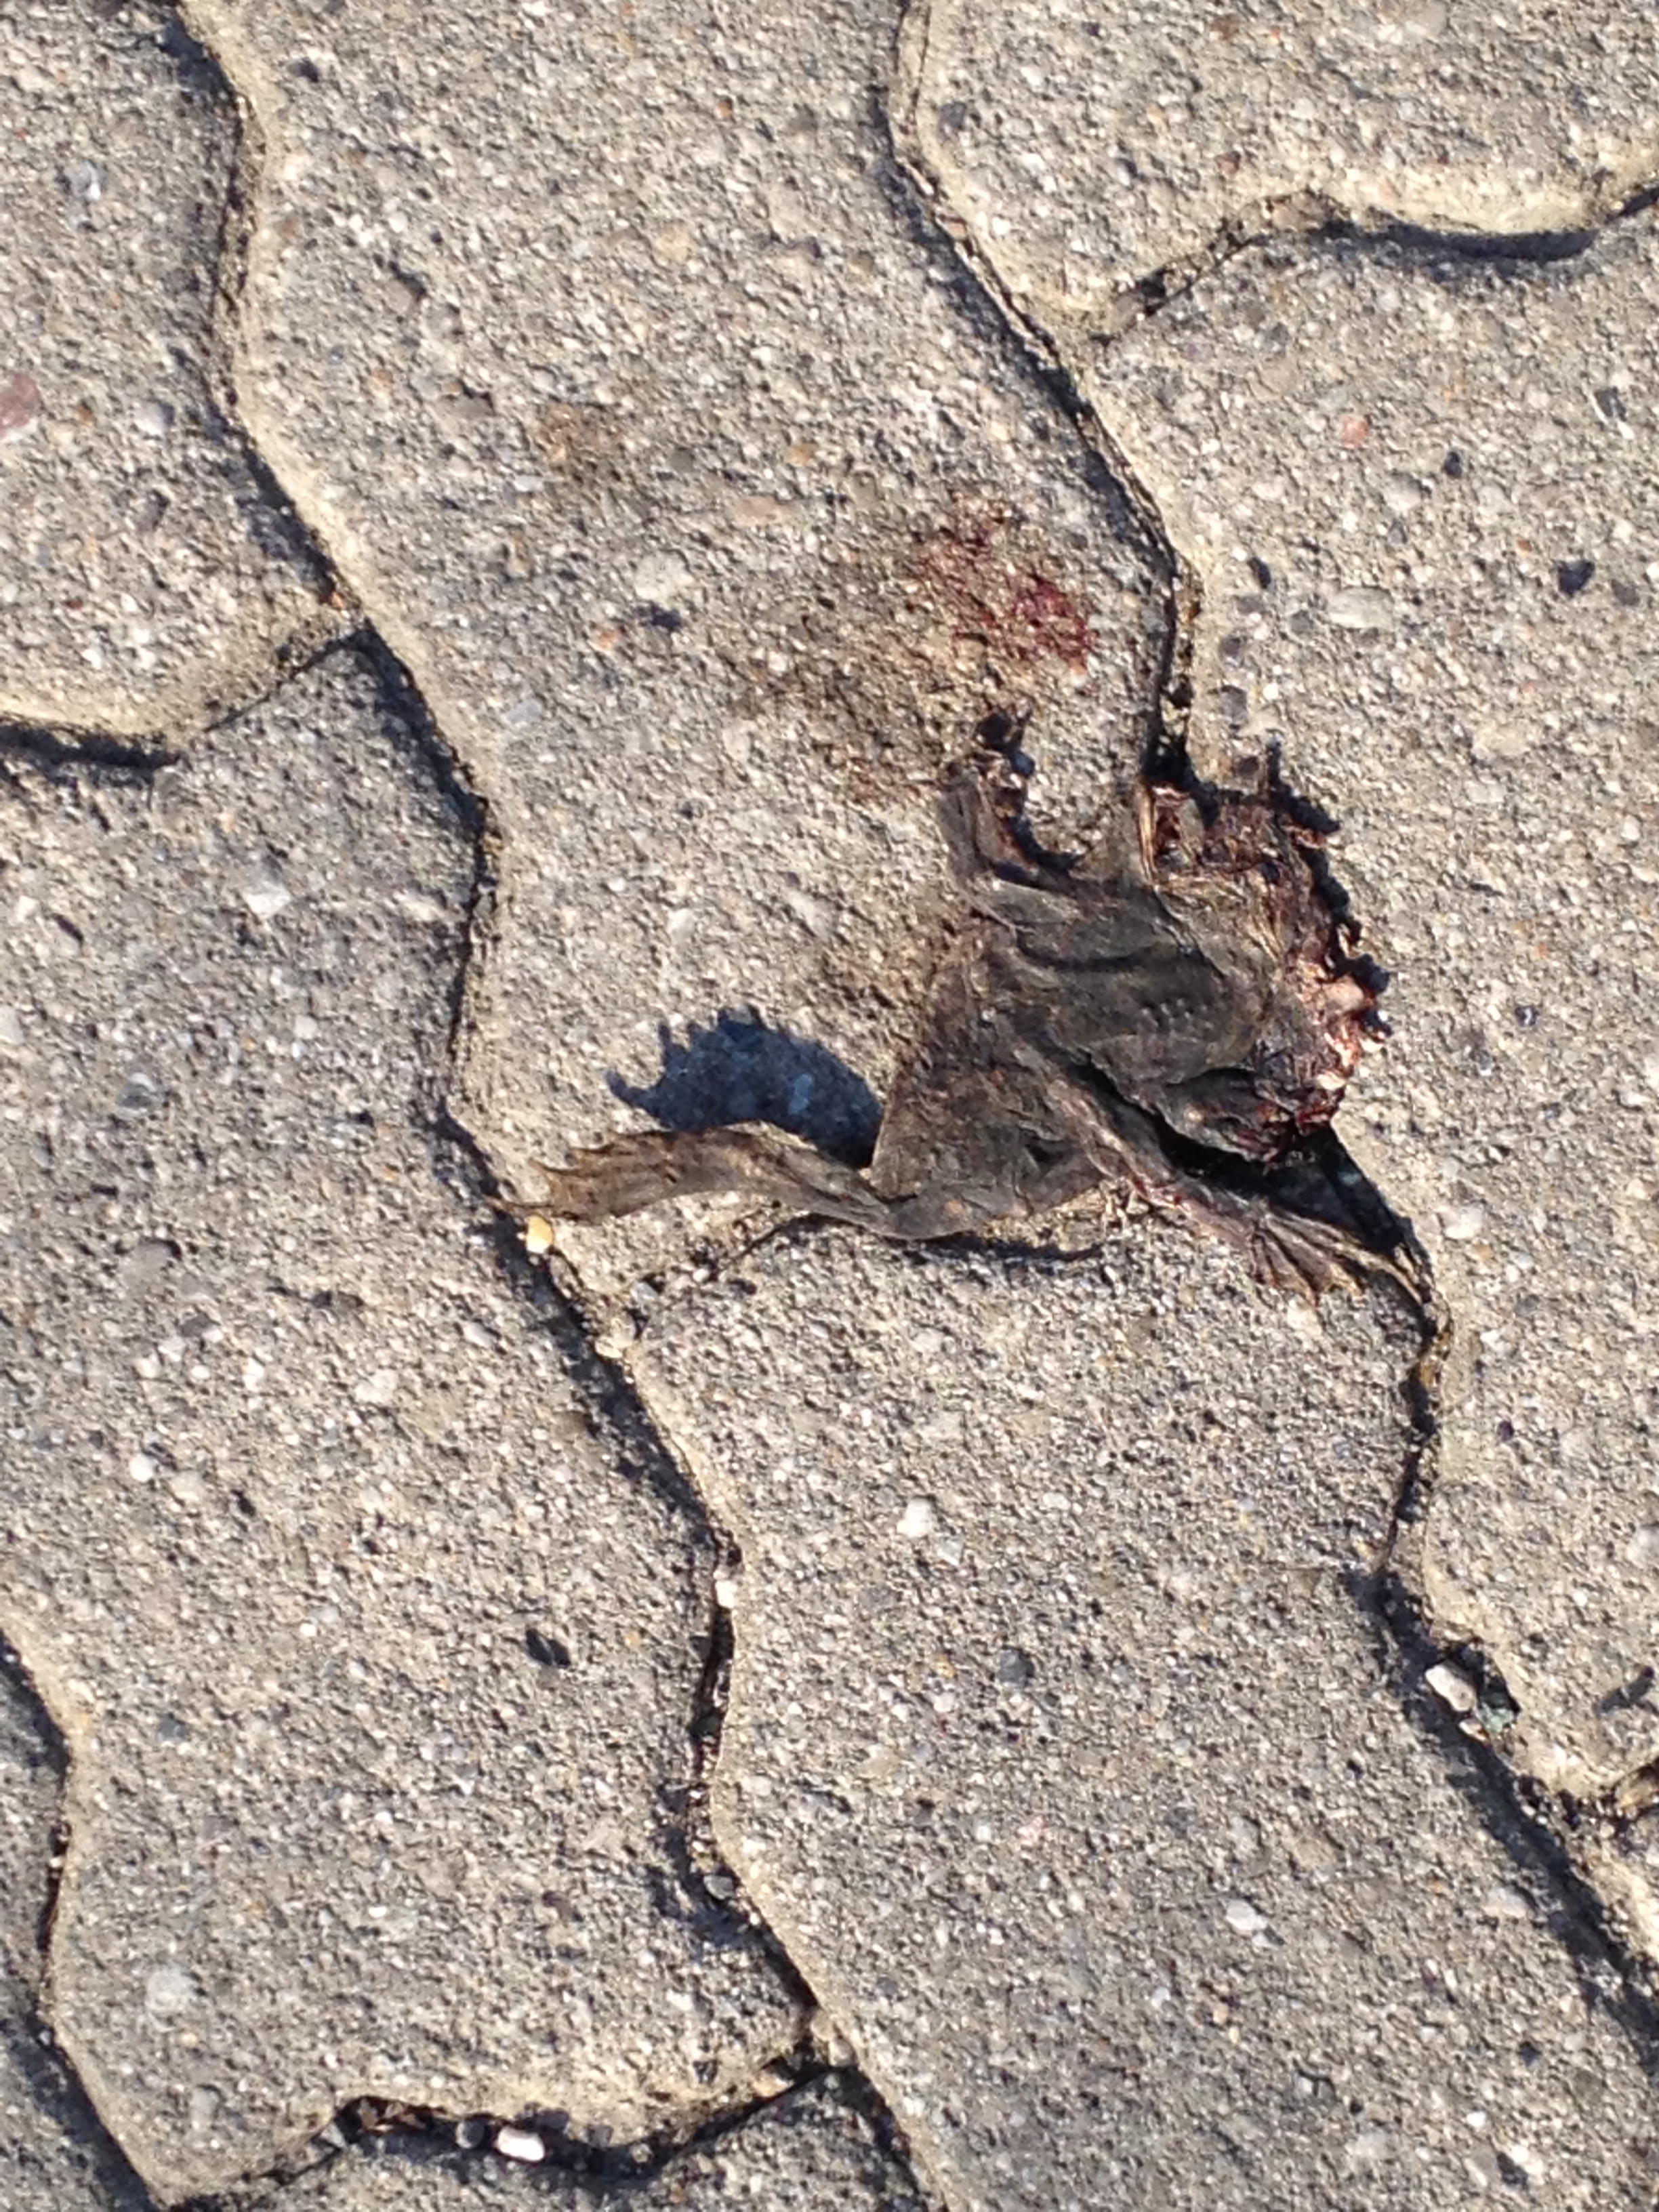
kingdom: Animalia
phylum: Chordata
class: Amphibia
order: Anura
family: Bufonidae
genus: Bufo
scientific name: Bufo bufo
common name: Common toad
